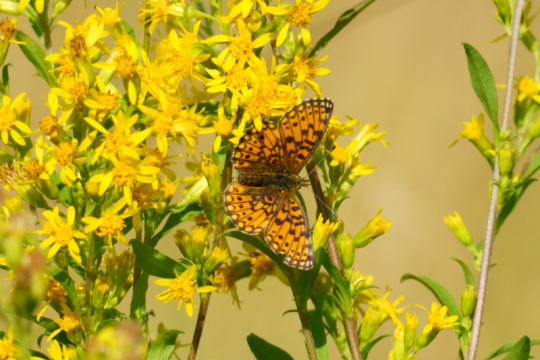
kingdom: Animalia
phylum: Arthropoda
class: Insecta
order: Lepidoptera
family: Nymphalidae
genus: Boloria
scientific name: Boloria selene
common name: Silver-bordered Fritillary
